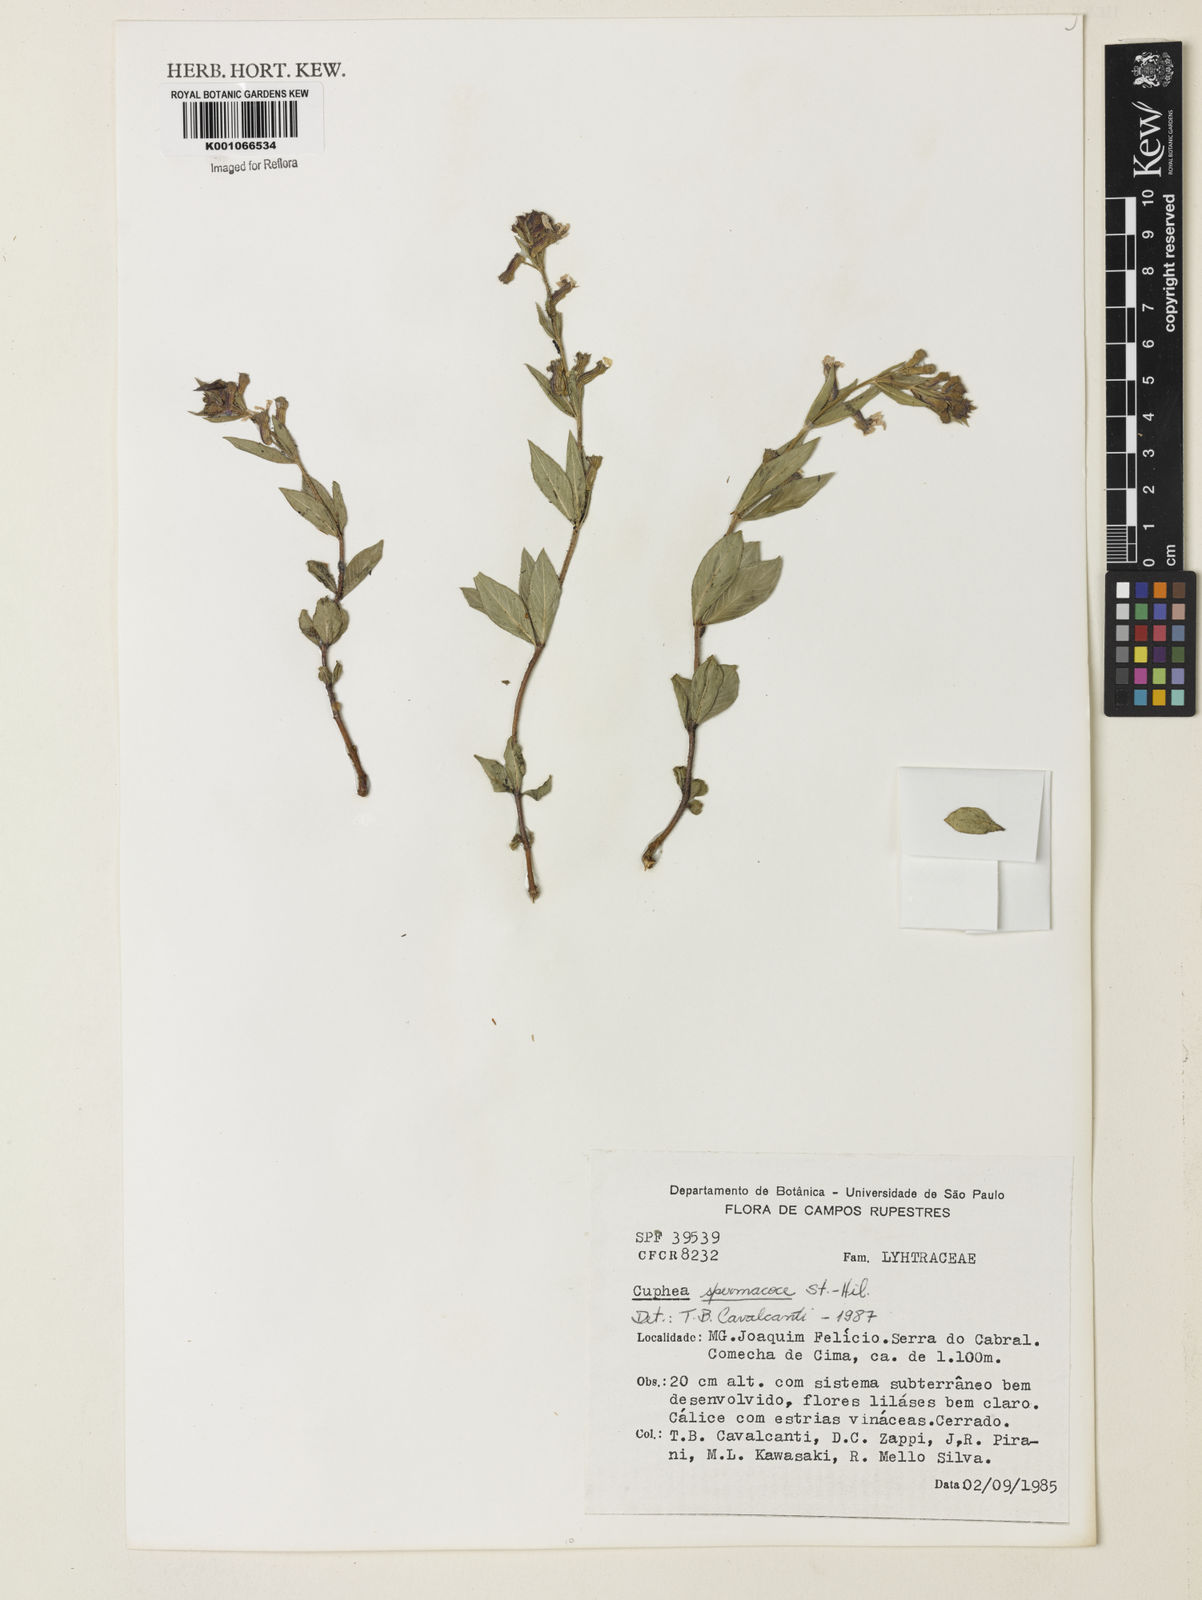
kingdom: Plantae
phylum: Tracheophyta
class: Magnoliopsida
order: Myrtales
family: Lythraceae
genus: Cuphea
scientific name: Cuphea spermacoce
